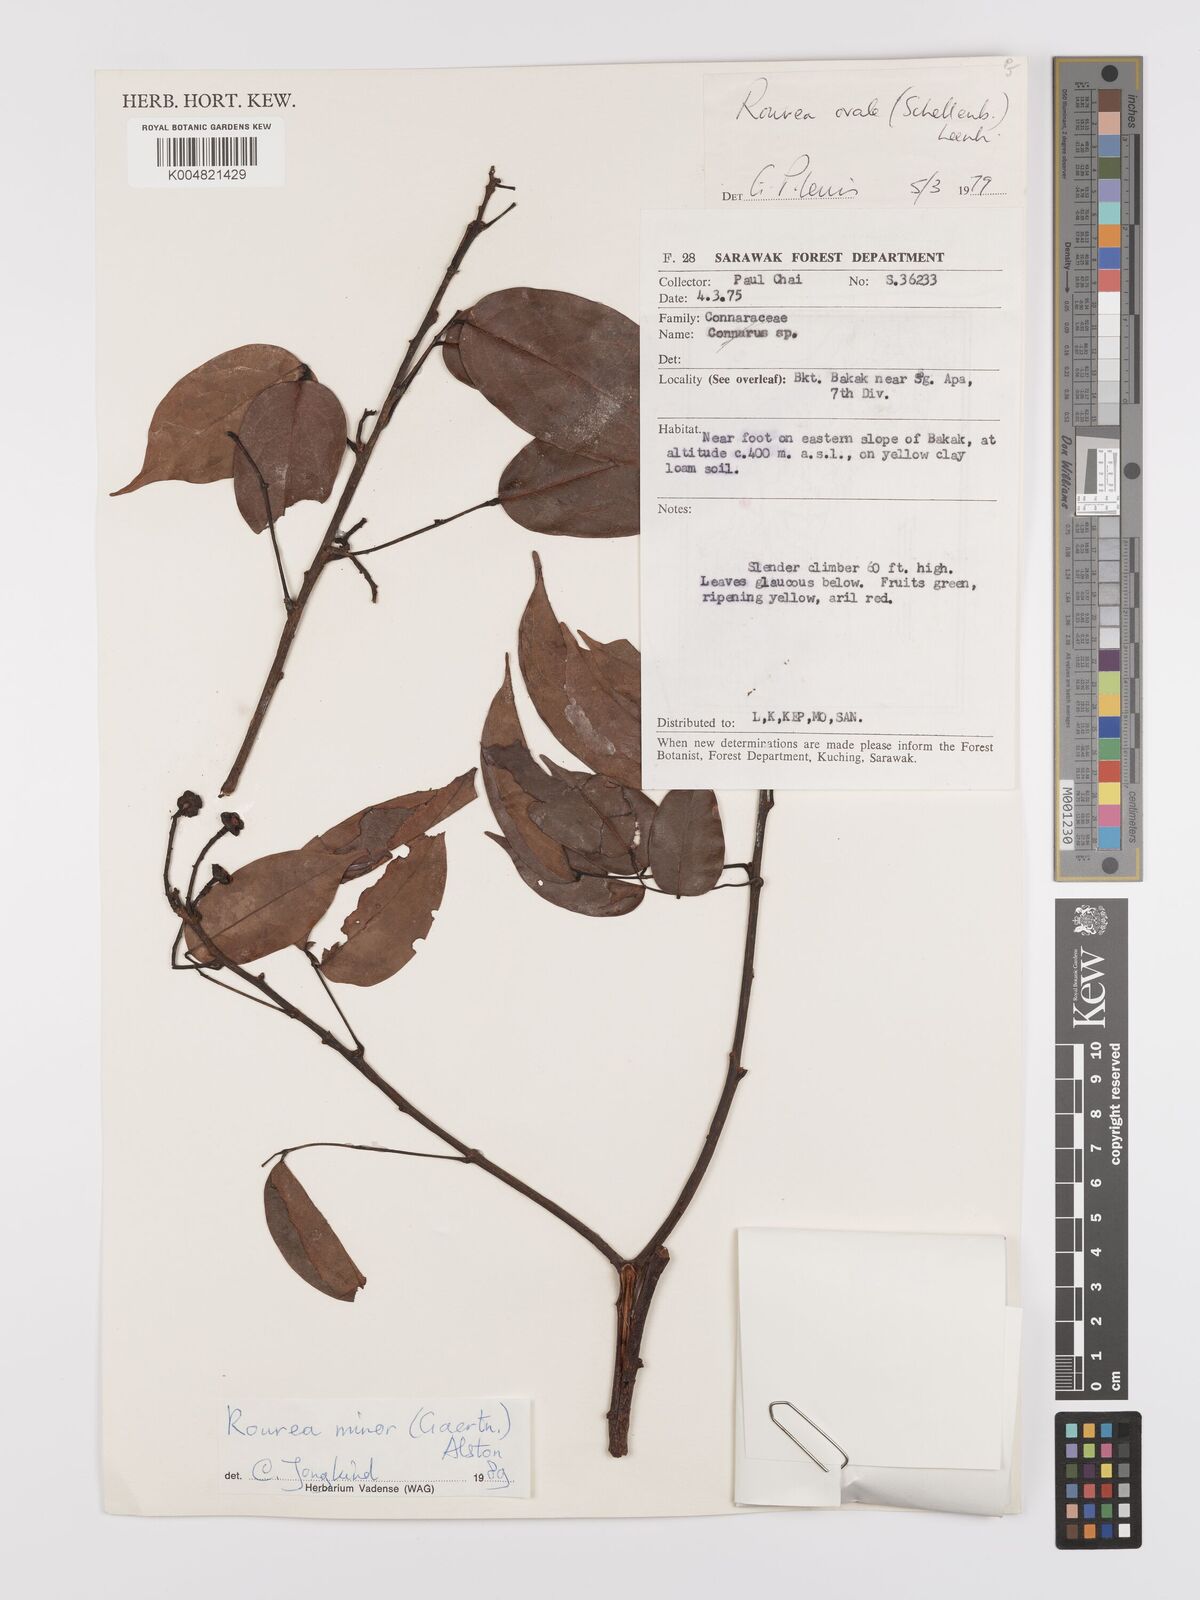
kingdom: Plantae
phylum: Tracheophyta
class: Magnoliopsida
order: Oxalidales
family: Connaraceae
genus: Rourea
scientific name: Rourea ovalis
